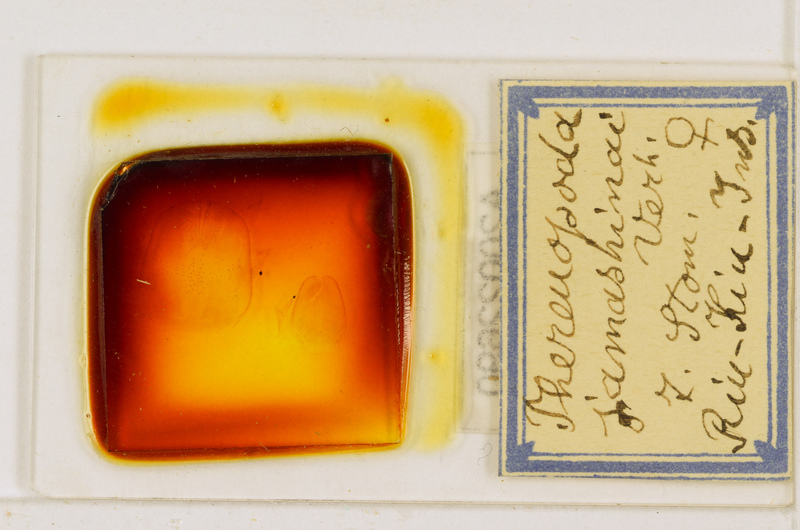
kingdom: Animalia
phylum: Arthropoda
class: Chilopoda
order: Scutigeromorpha
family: Scutigeridae
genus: Thereuopoda
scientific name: Thereuopoda clunifera
